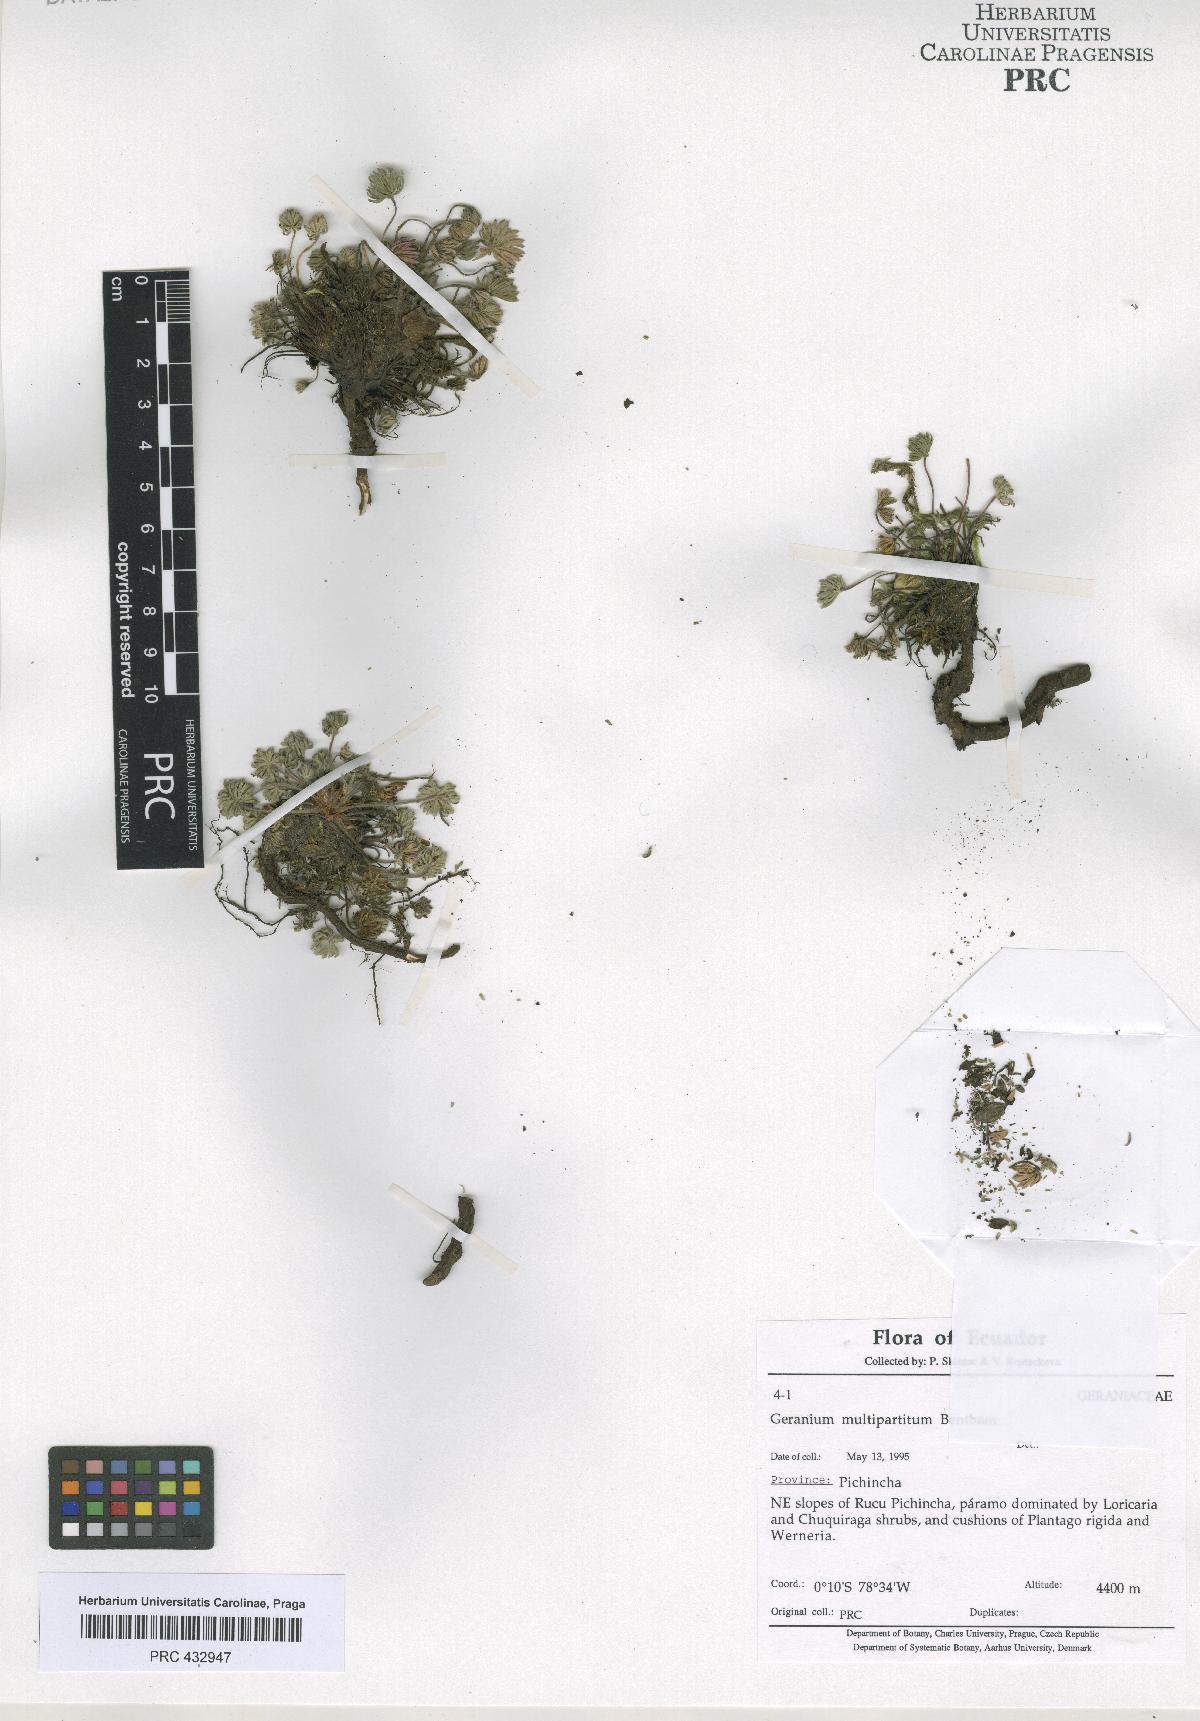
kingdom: Plantae
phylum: Tracheophyta
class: Magnoliopsida
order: Geraniales
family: Geraniaceae
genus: Geranium
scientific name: Geranium multipartitum
